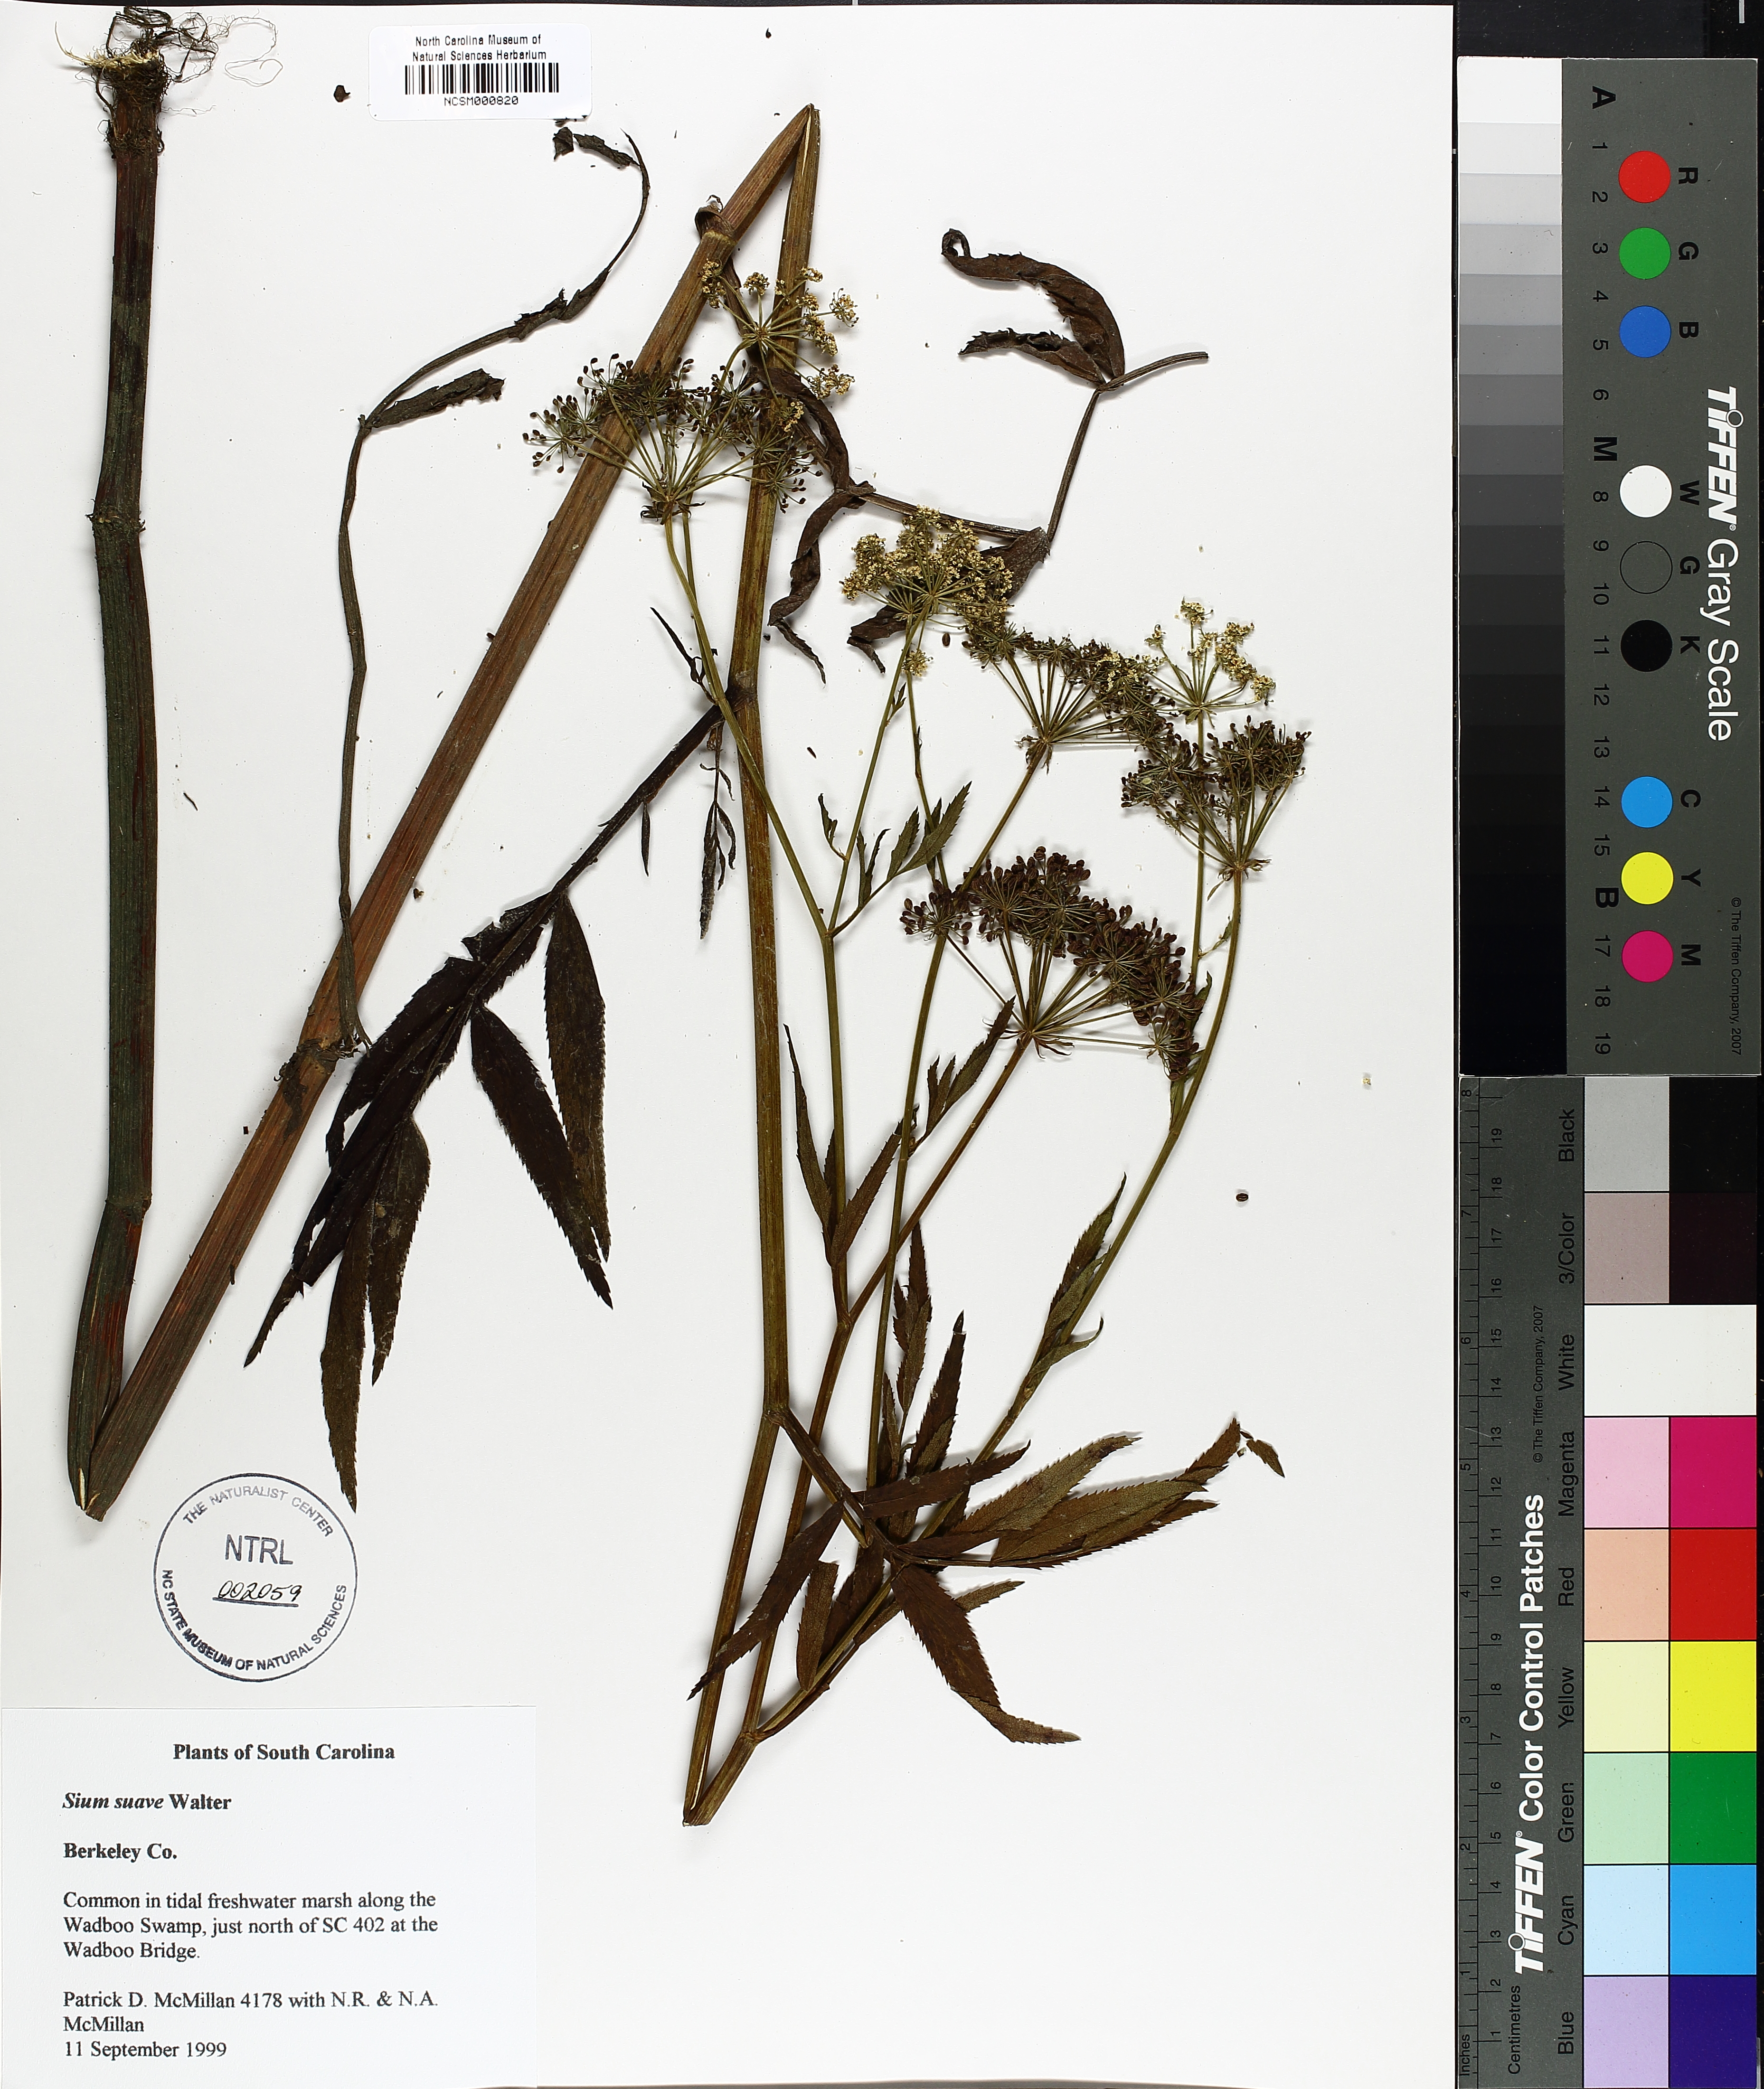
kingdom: Plantae
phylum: Tracheophyta
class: Magnoliopsida
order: Apiales
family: Apiaceae
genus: Sium
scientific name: Sium suave
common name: Hemlock water-parsnip
